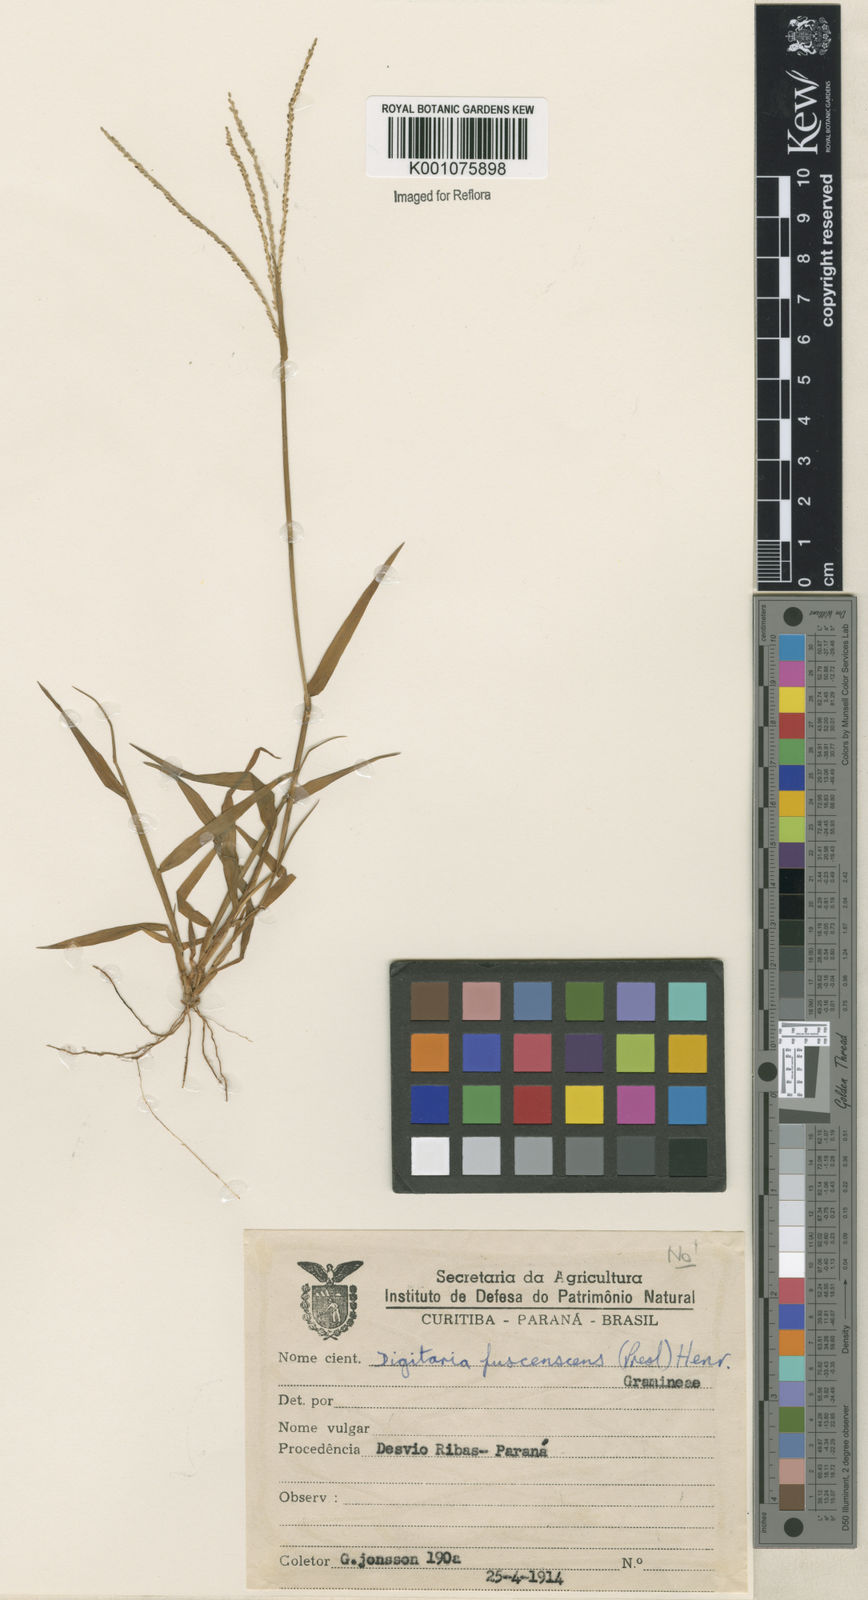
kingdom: Plantae
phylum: Tracheophyta
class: Liliopsida
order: Poales
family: Poaceae
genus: Digitaria
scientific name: Digitaria violascens
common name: Violet crabgrass
